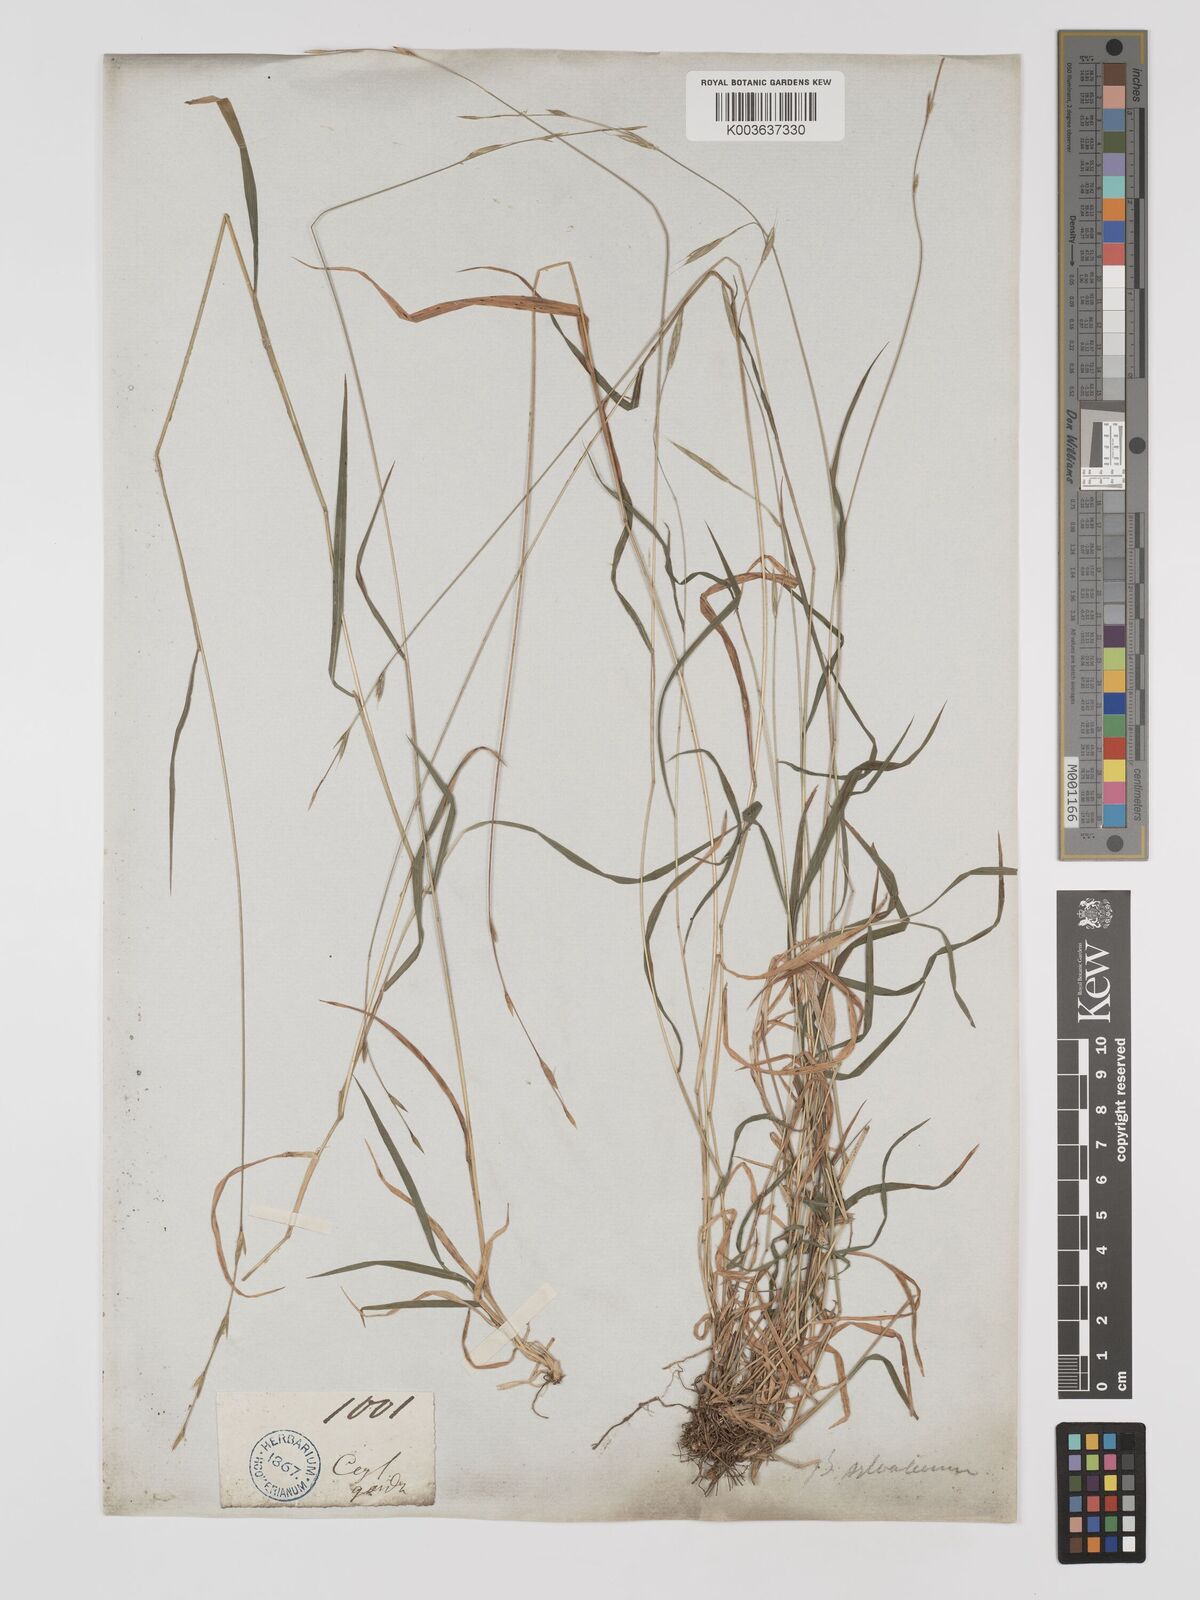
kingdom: Plantae
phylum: Tracheophyta
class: Liliopsida
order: Poales
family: Poaceae
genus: Brachypodium
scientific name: Brachypodium sylvaticum
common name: False-brome
